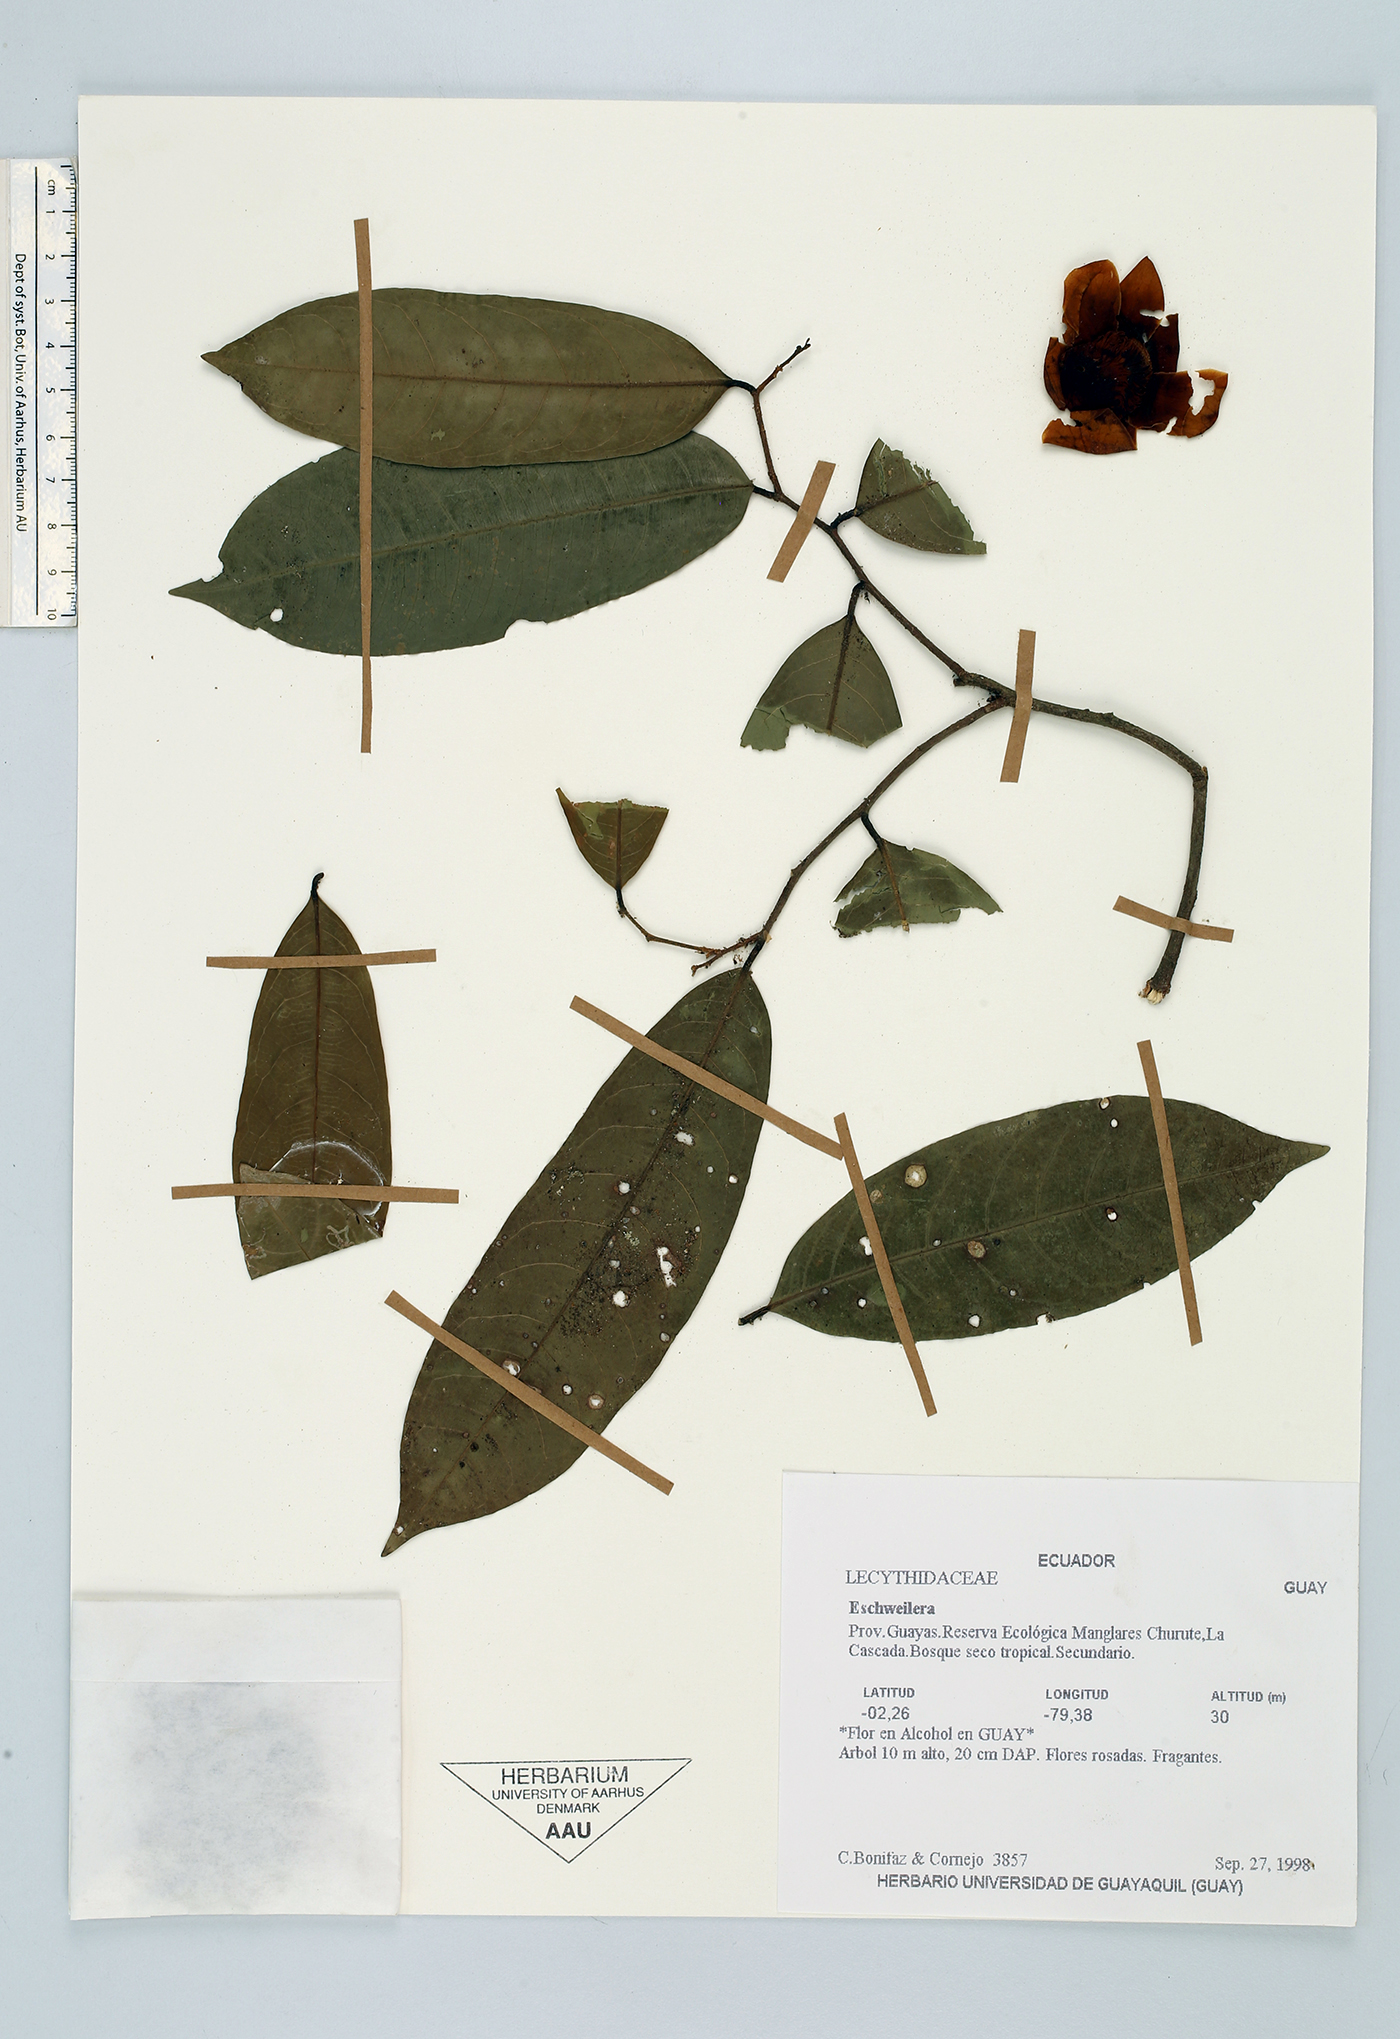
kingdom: Plantae
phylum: Tracheophyta
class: Magnoliopsida
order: Ericales
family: Lecythidaceae
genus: Eschweilera
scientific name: Eschweilera
